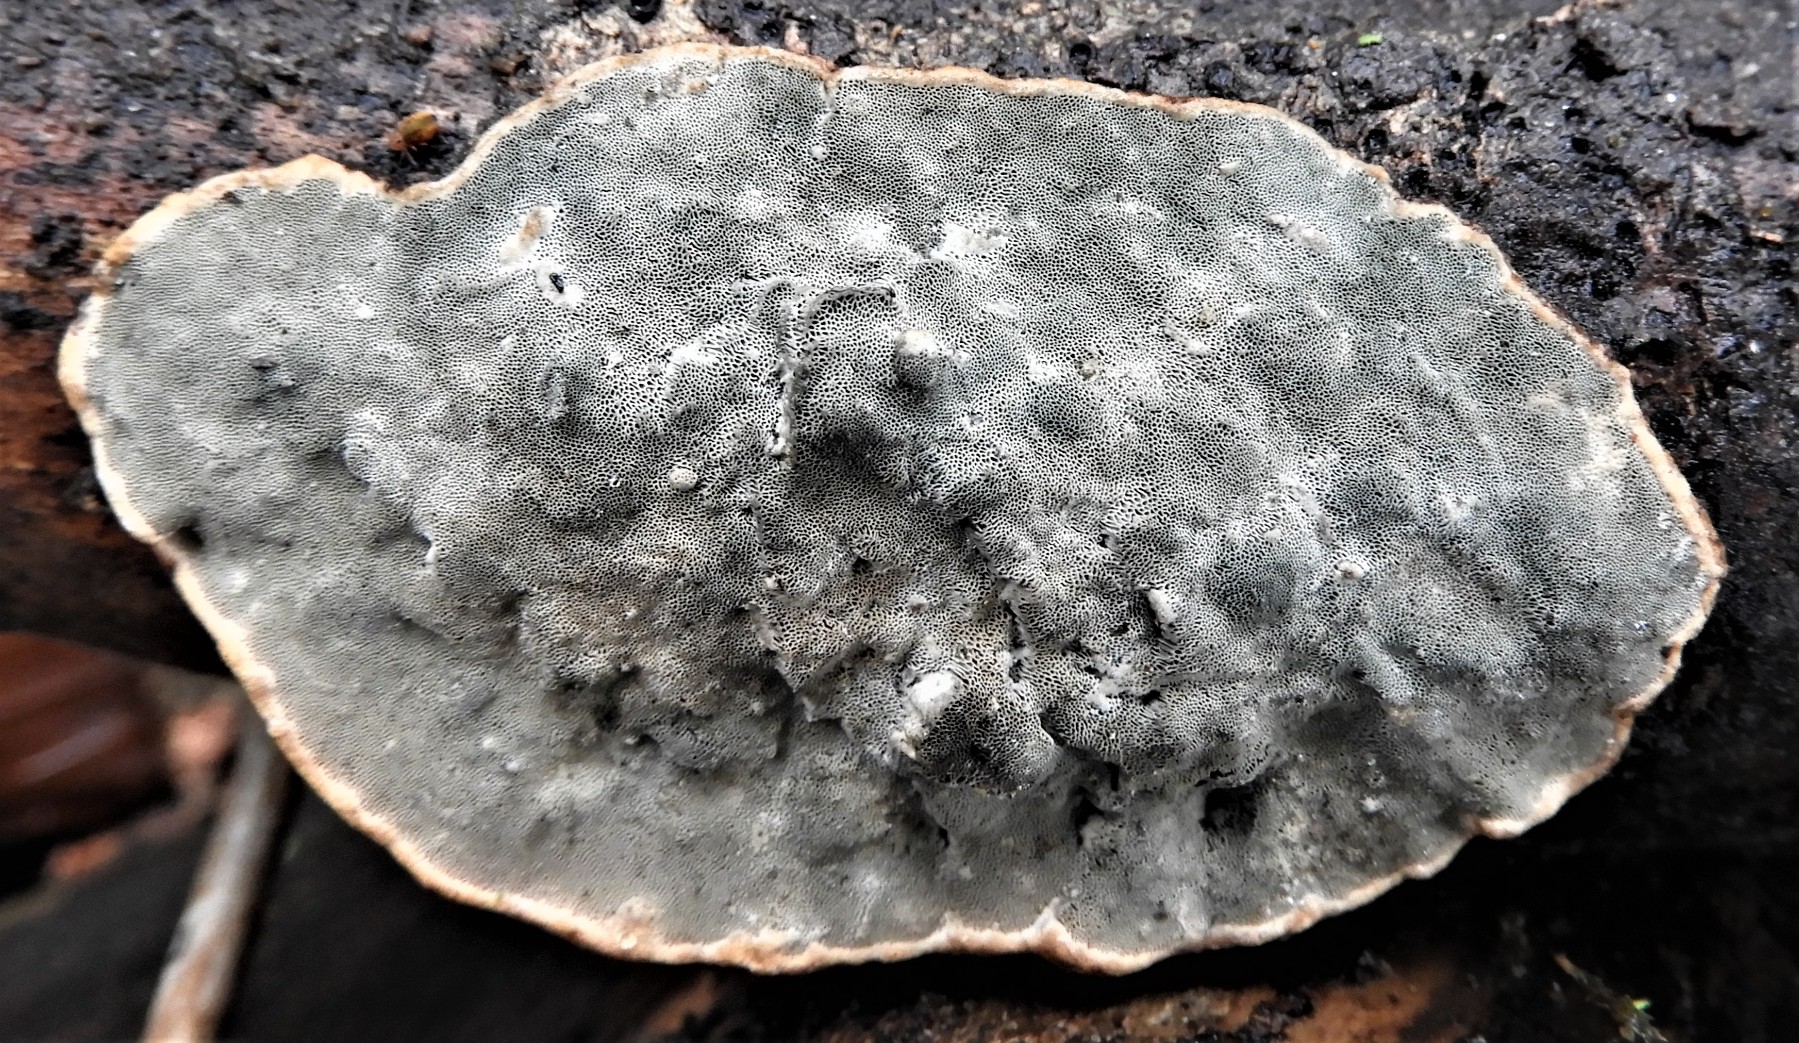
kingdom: Fungi
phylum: Basidiomycota
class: Agaricomycetes
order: Polyporales
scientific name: Polyporales
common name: poresvampordenen
